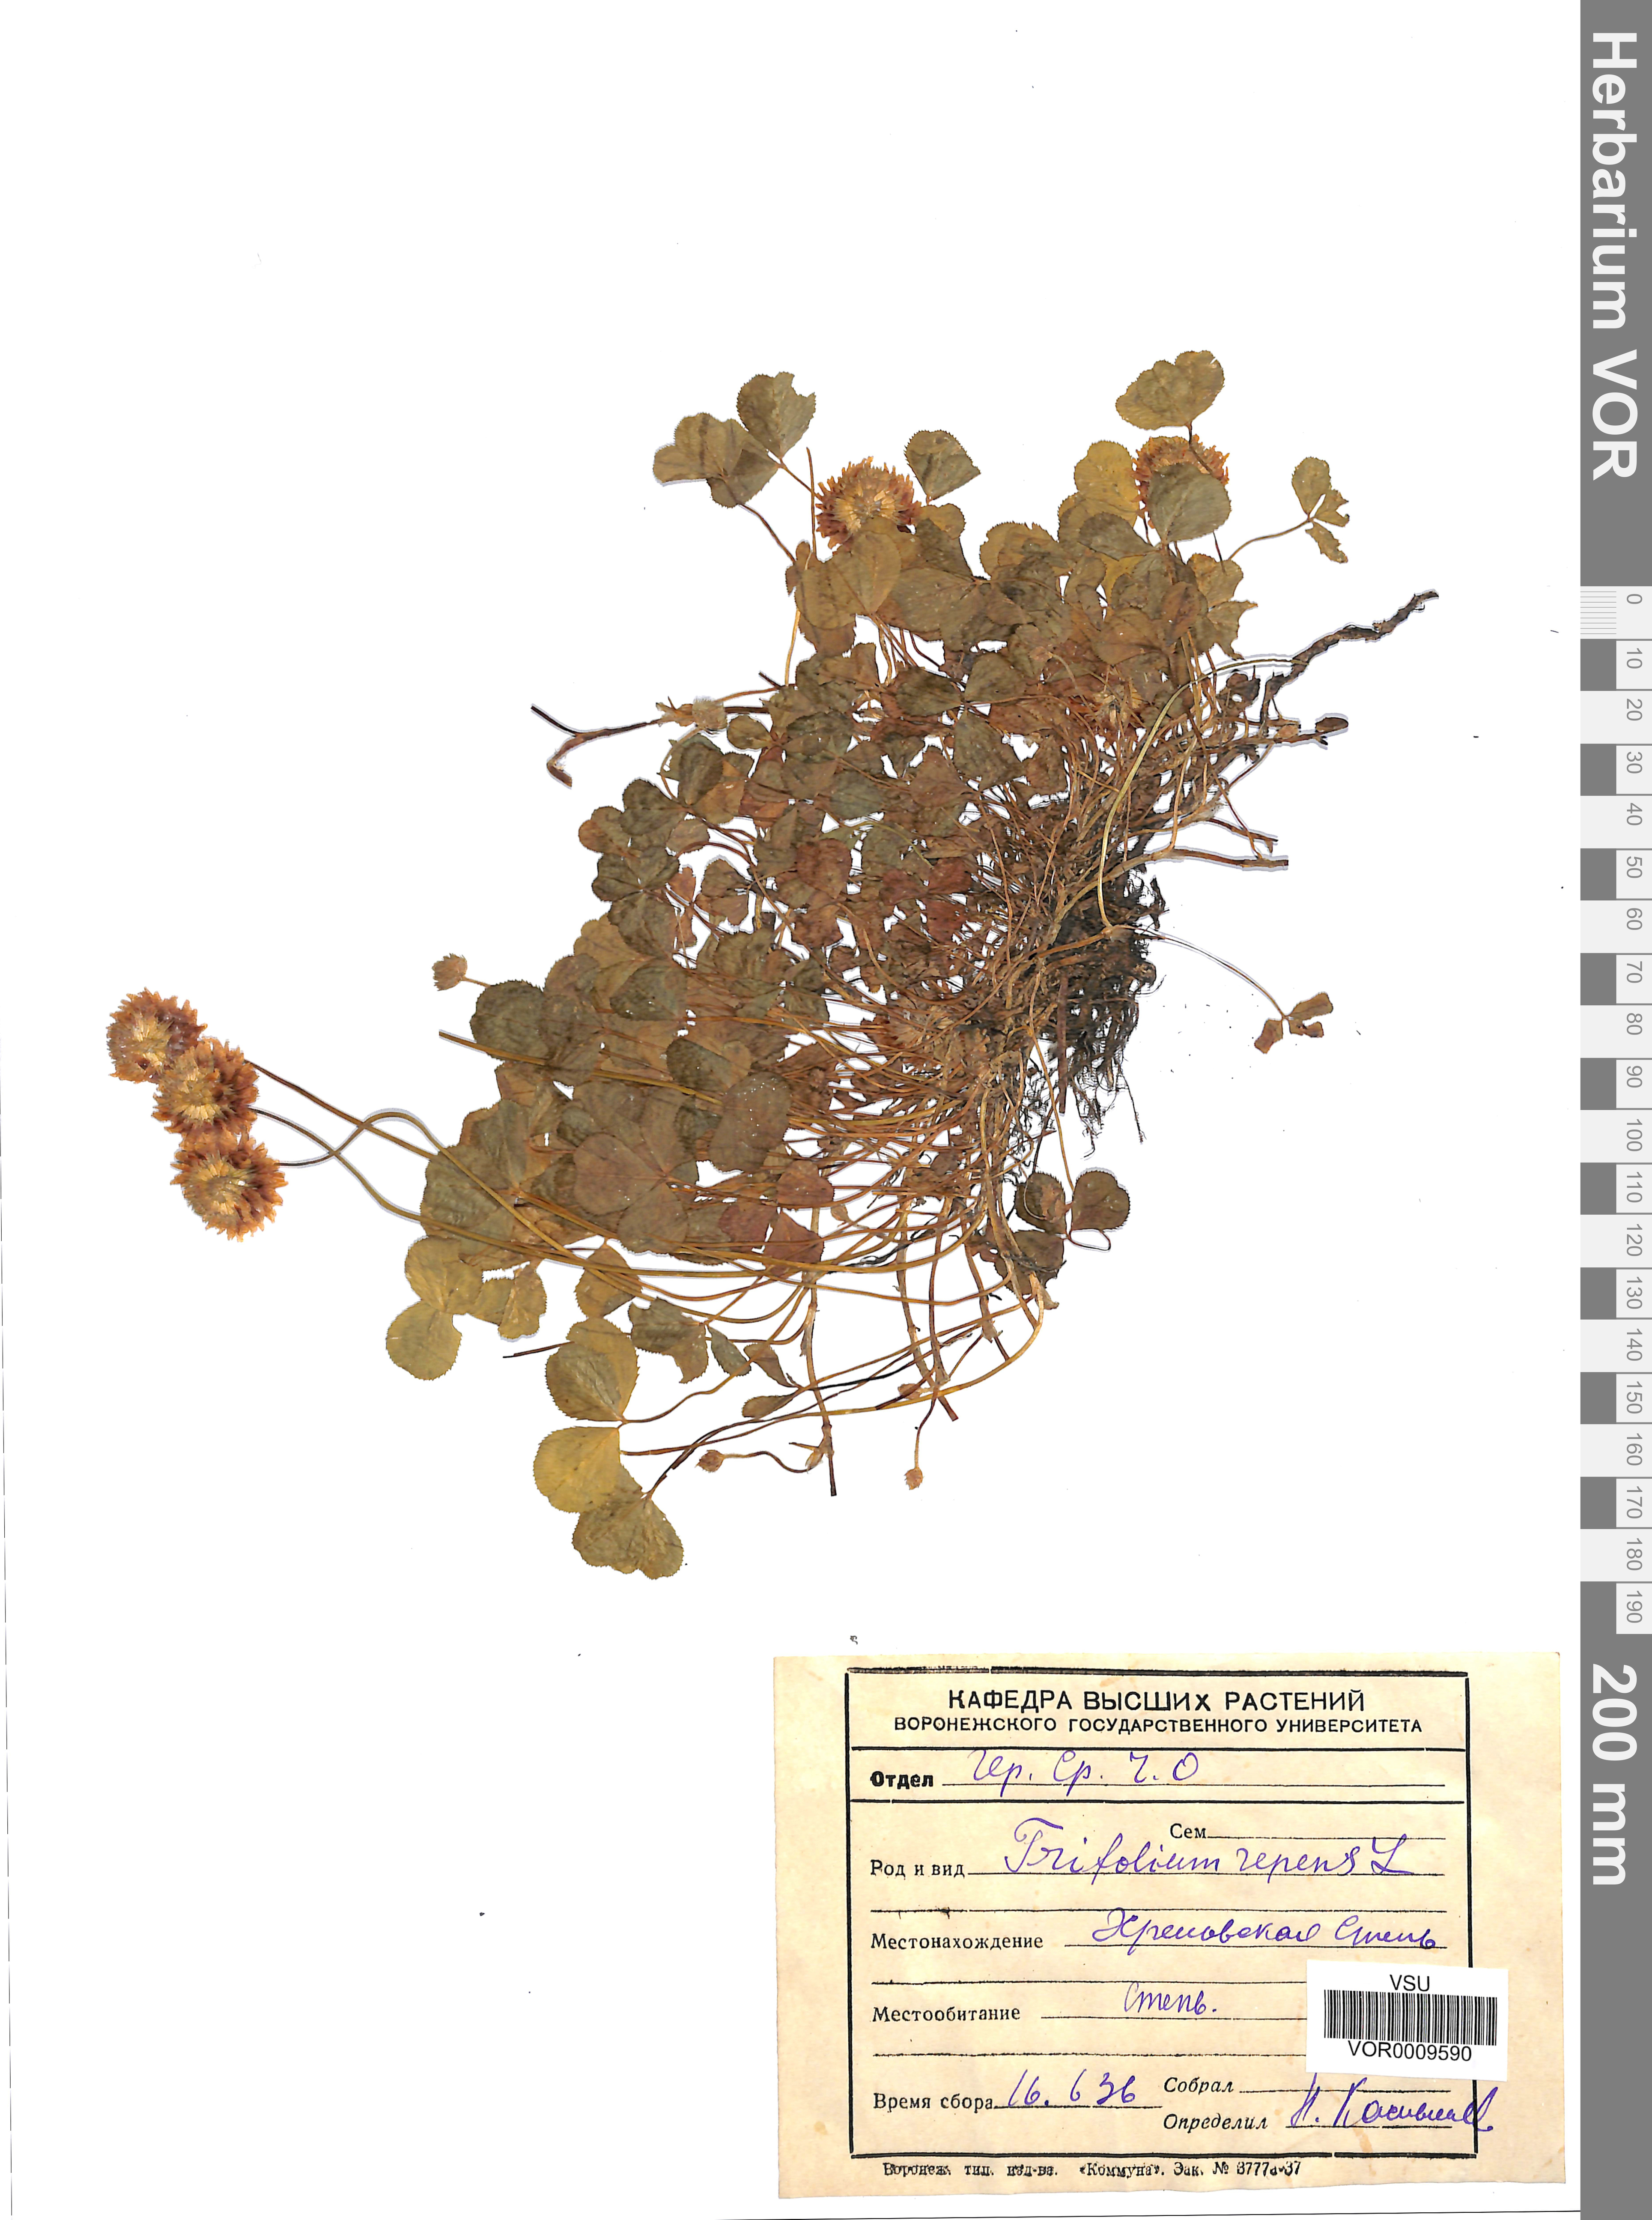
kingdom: Plantae
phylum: Tracheophyta
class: Magnoliopsida
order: Fabales
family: Fabaceae
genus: Trifolium
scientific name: Trifolium repens
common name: White clover
